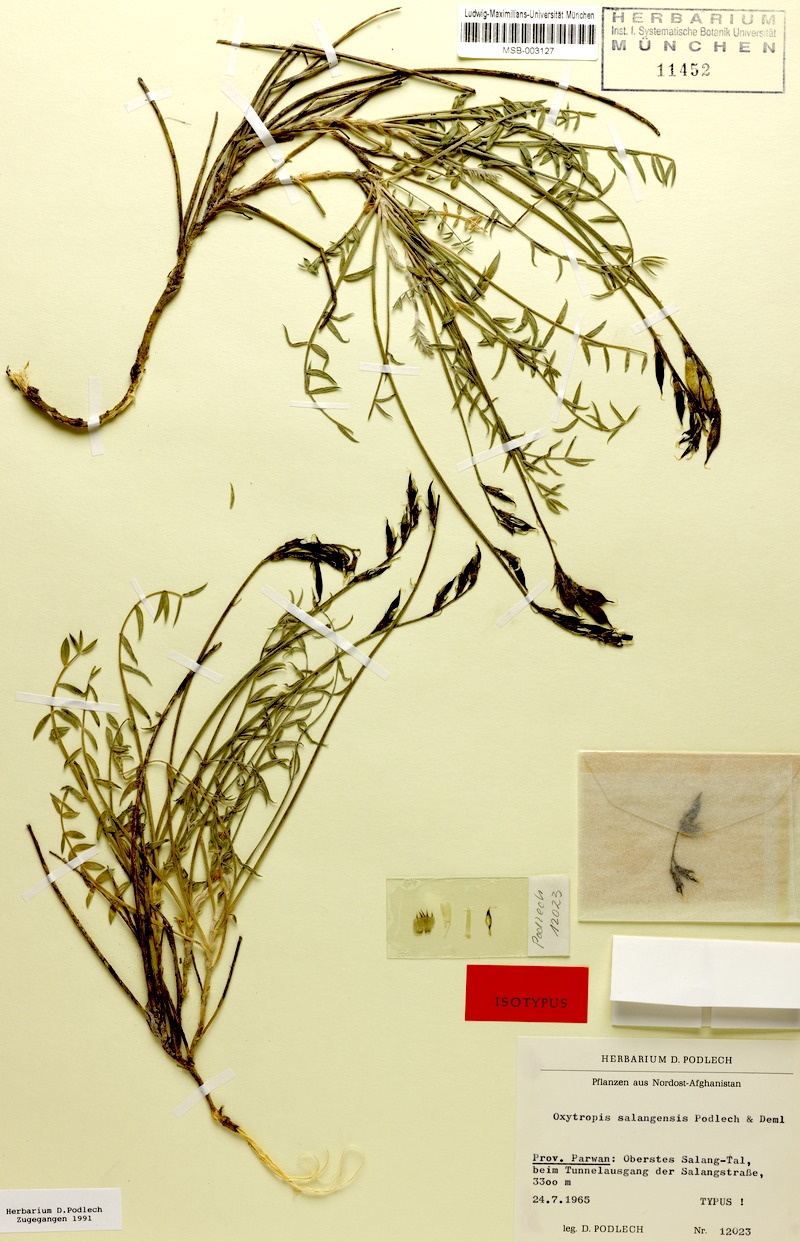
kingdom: Plantae
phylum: Tracheophyta
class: Magnoliopsida
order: Fabales
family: Fabaceae
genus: Oxytropis
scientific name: Oxytropis salangensis
